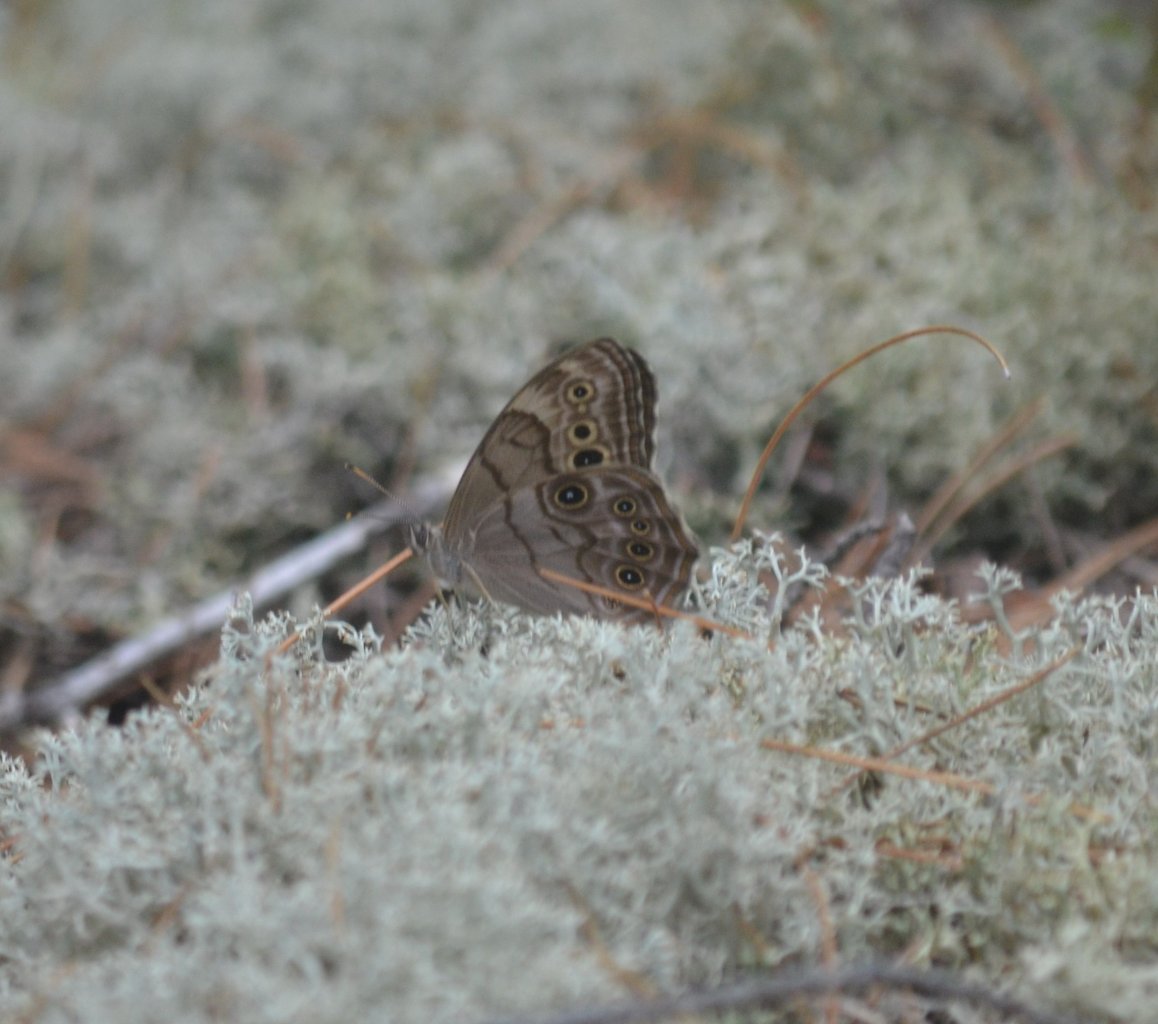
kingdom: Animalia
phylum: Arthropoda
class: Insecta
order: Lepidoptera
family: Nymphalidae
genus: Lethe
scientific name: Lethe anthedon
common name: Northern Pearly-Eye
